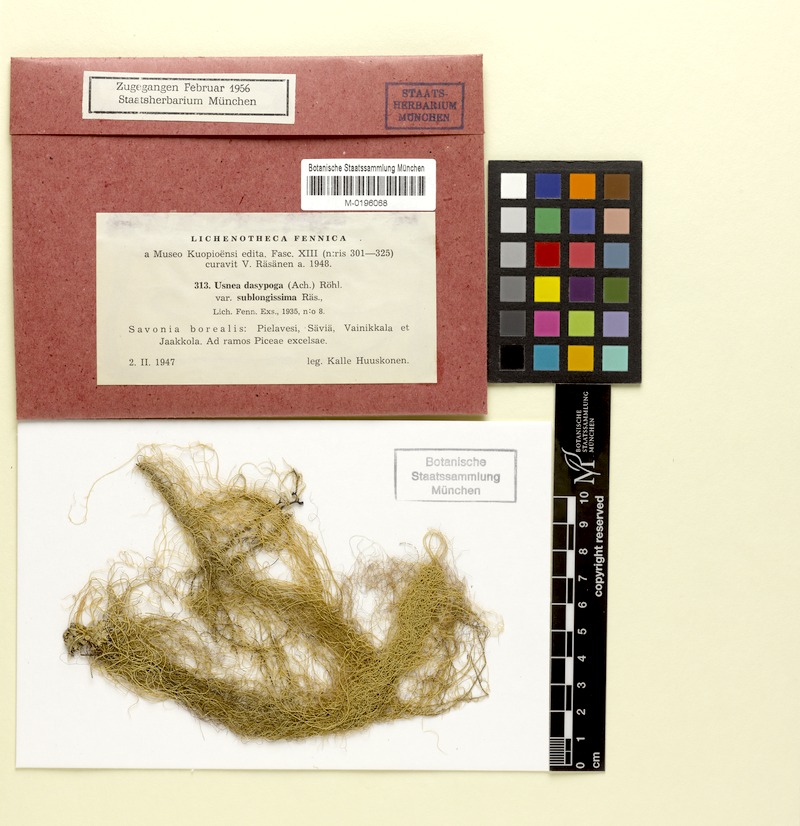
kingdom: Fungi
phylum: Ascomycota
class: Lecanoromycetes
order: Lecanorales
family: Parmeliaceae
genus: Usnea
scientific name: Usnea filipendula
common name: Fishbone beard lichen
